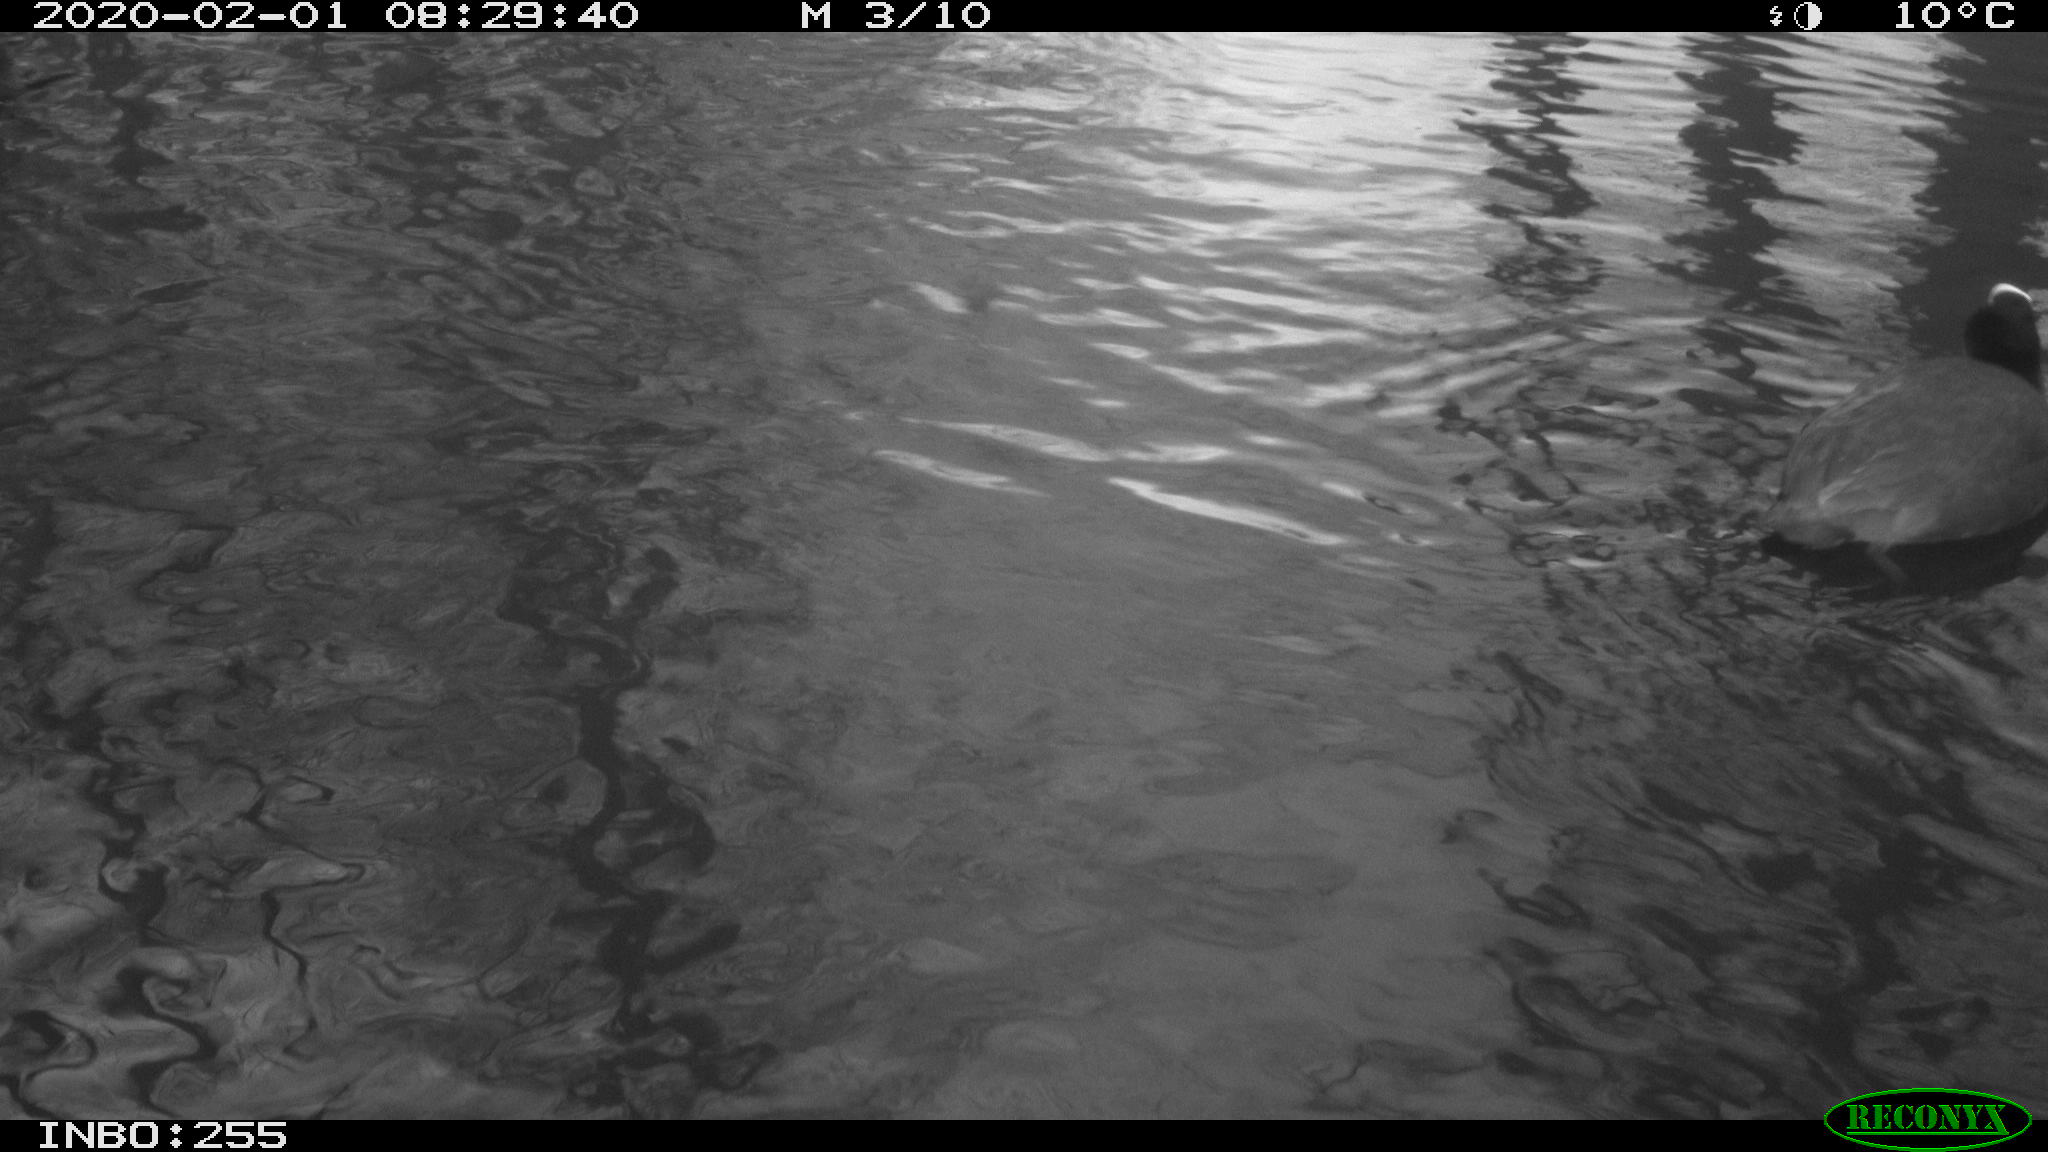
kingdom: Animalia
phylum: Chordata
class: Aves
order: Gruiformes
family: Rallidae
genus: Fulica
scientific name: Fulica atra
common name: Eurasian coot
